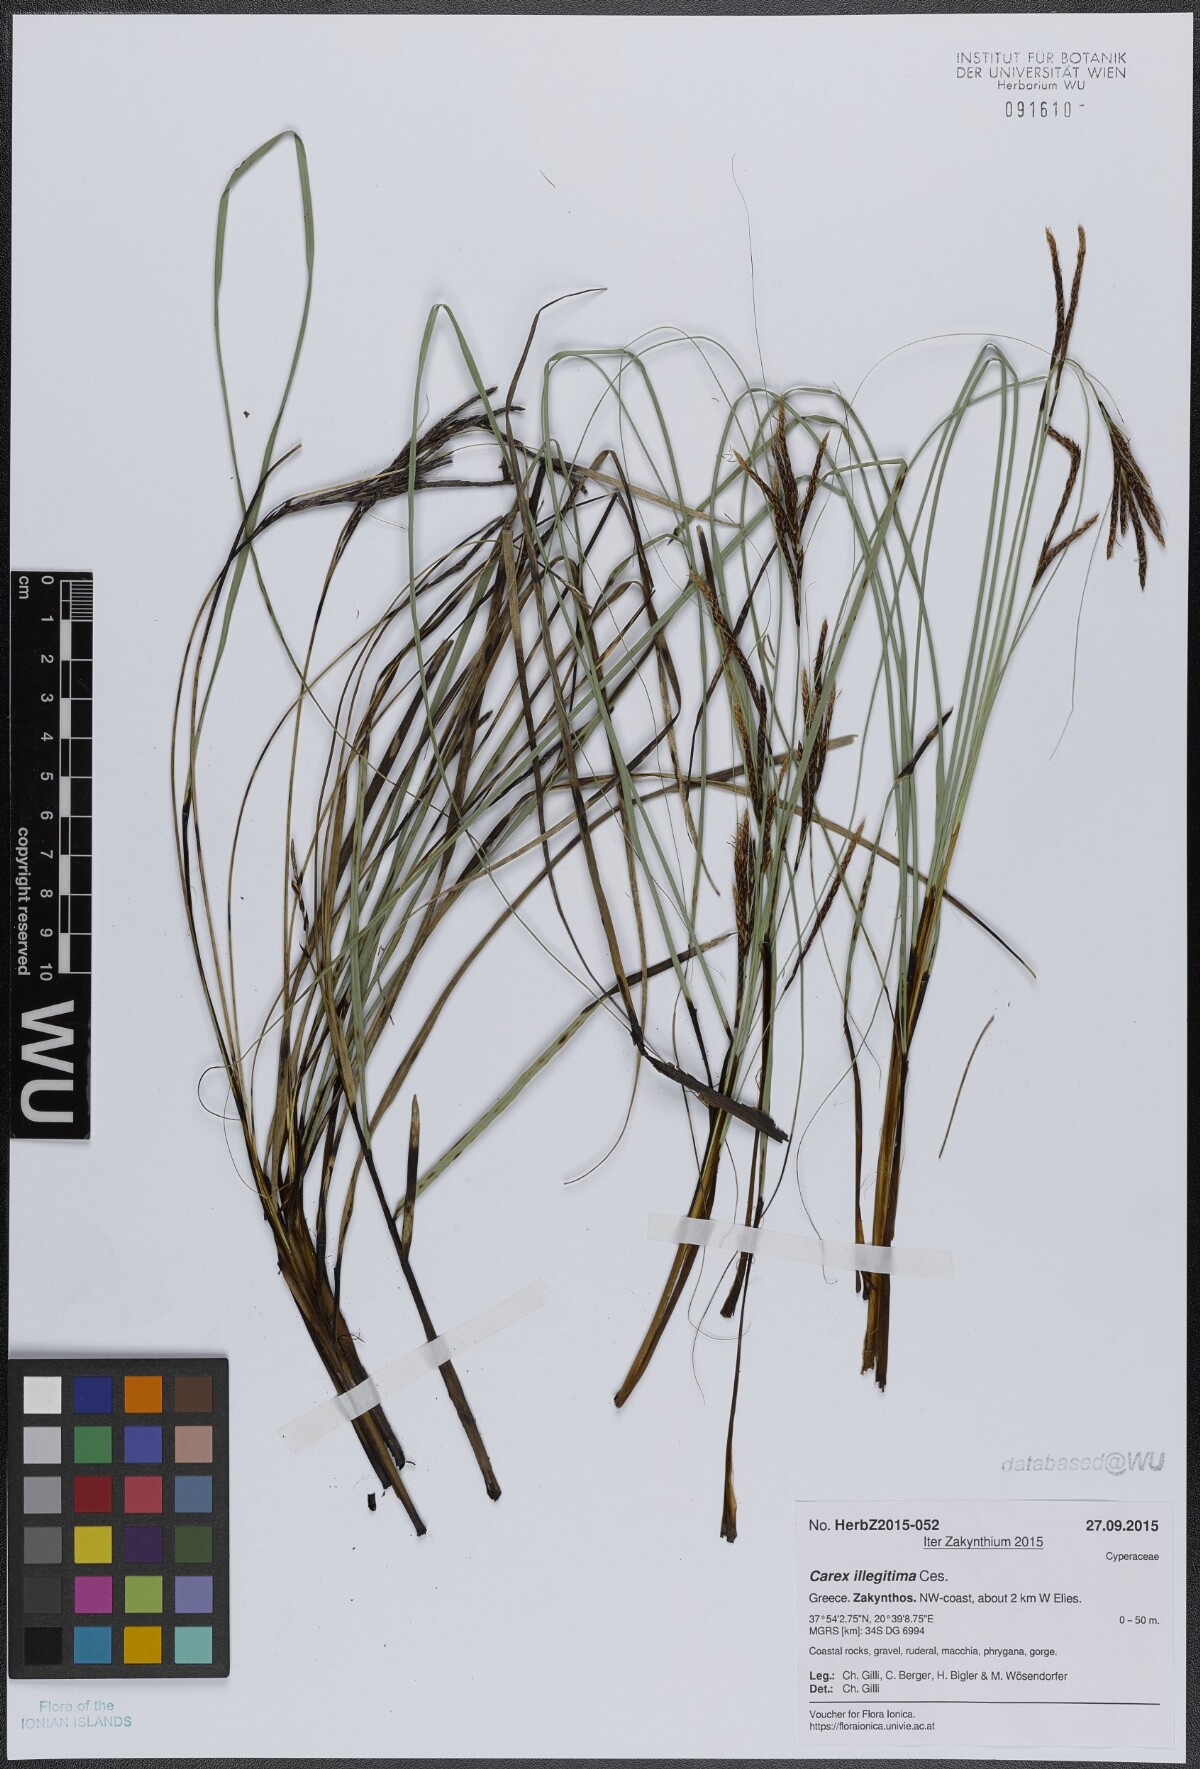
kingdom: Plantae
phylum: Tracheophyta
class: Liliopsida
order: Poales
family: Cyperaceae
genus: Carex
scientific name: Carex illegitima
